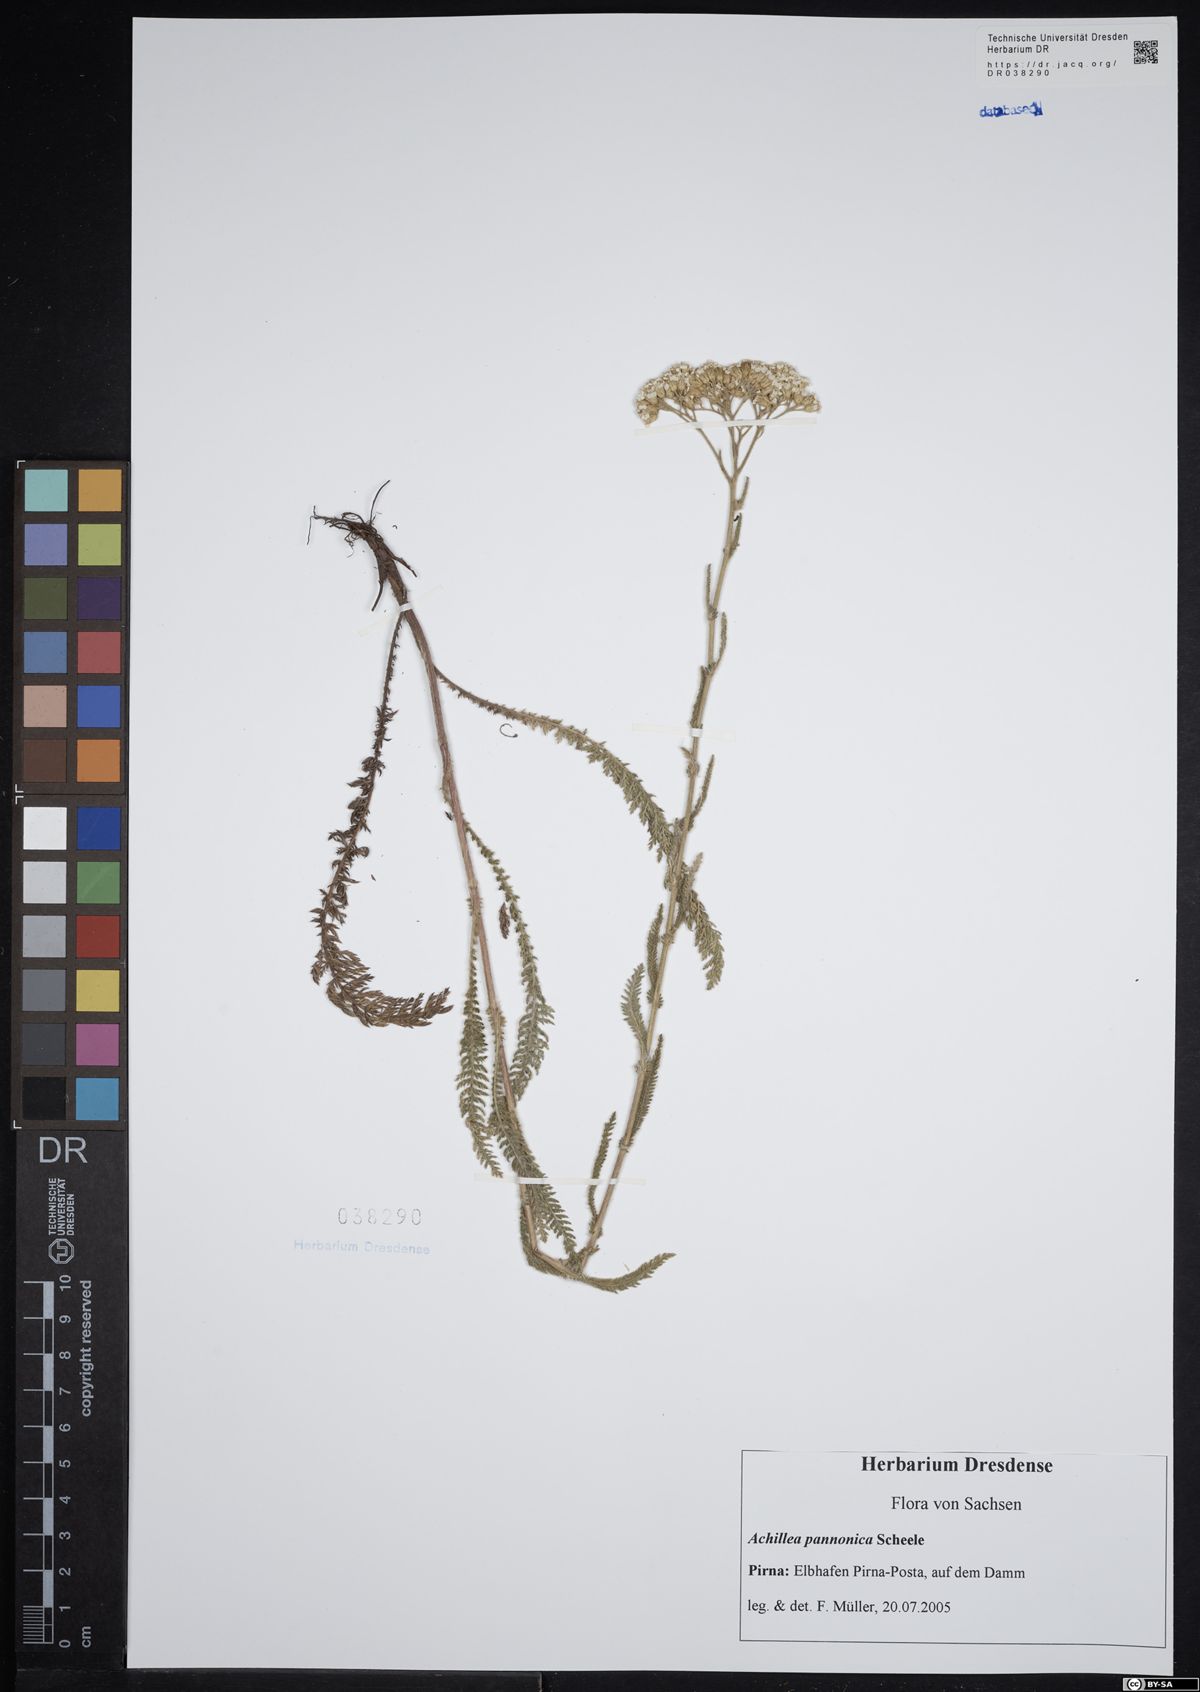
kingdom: Plantae
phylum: Tracheophyta
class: Magnoliopsida
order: Asterales
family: Asteraceae
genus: Achillea
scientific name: Achillea pannonica
